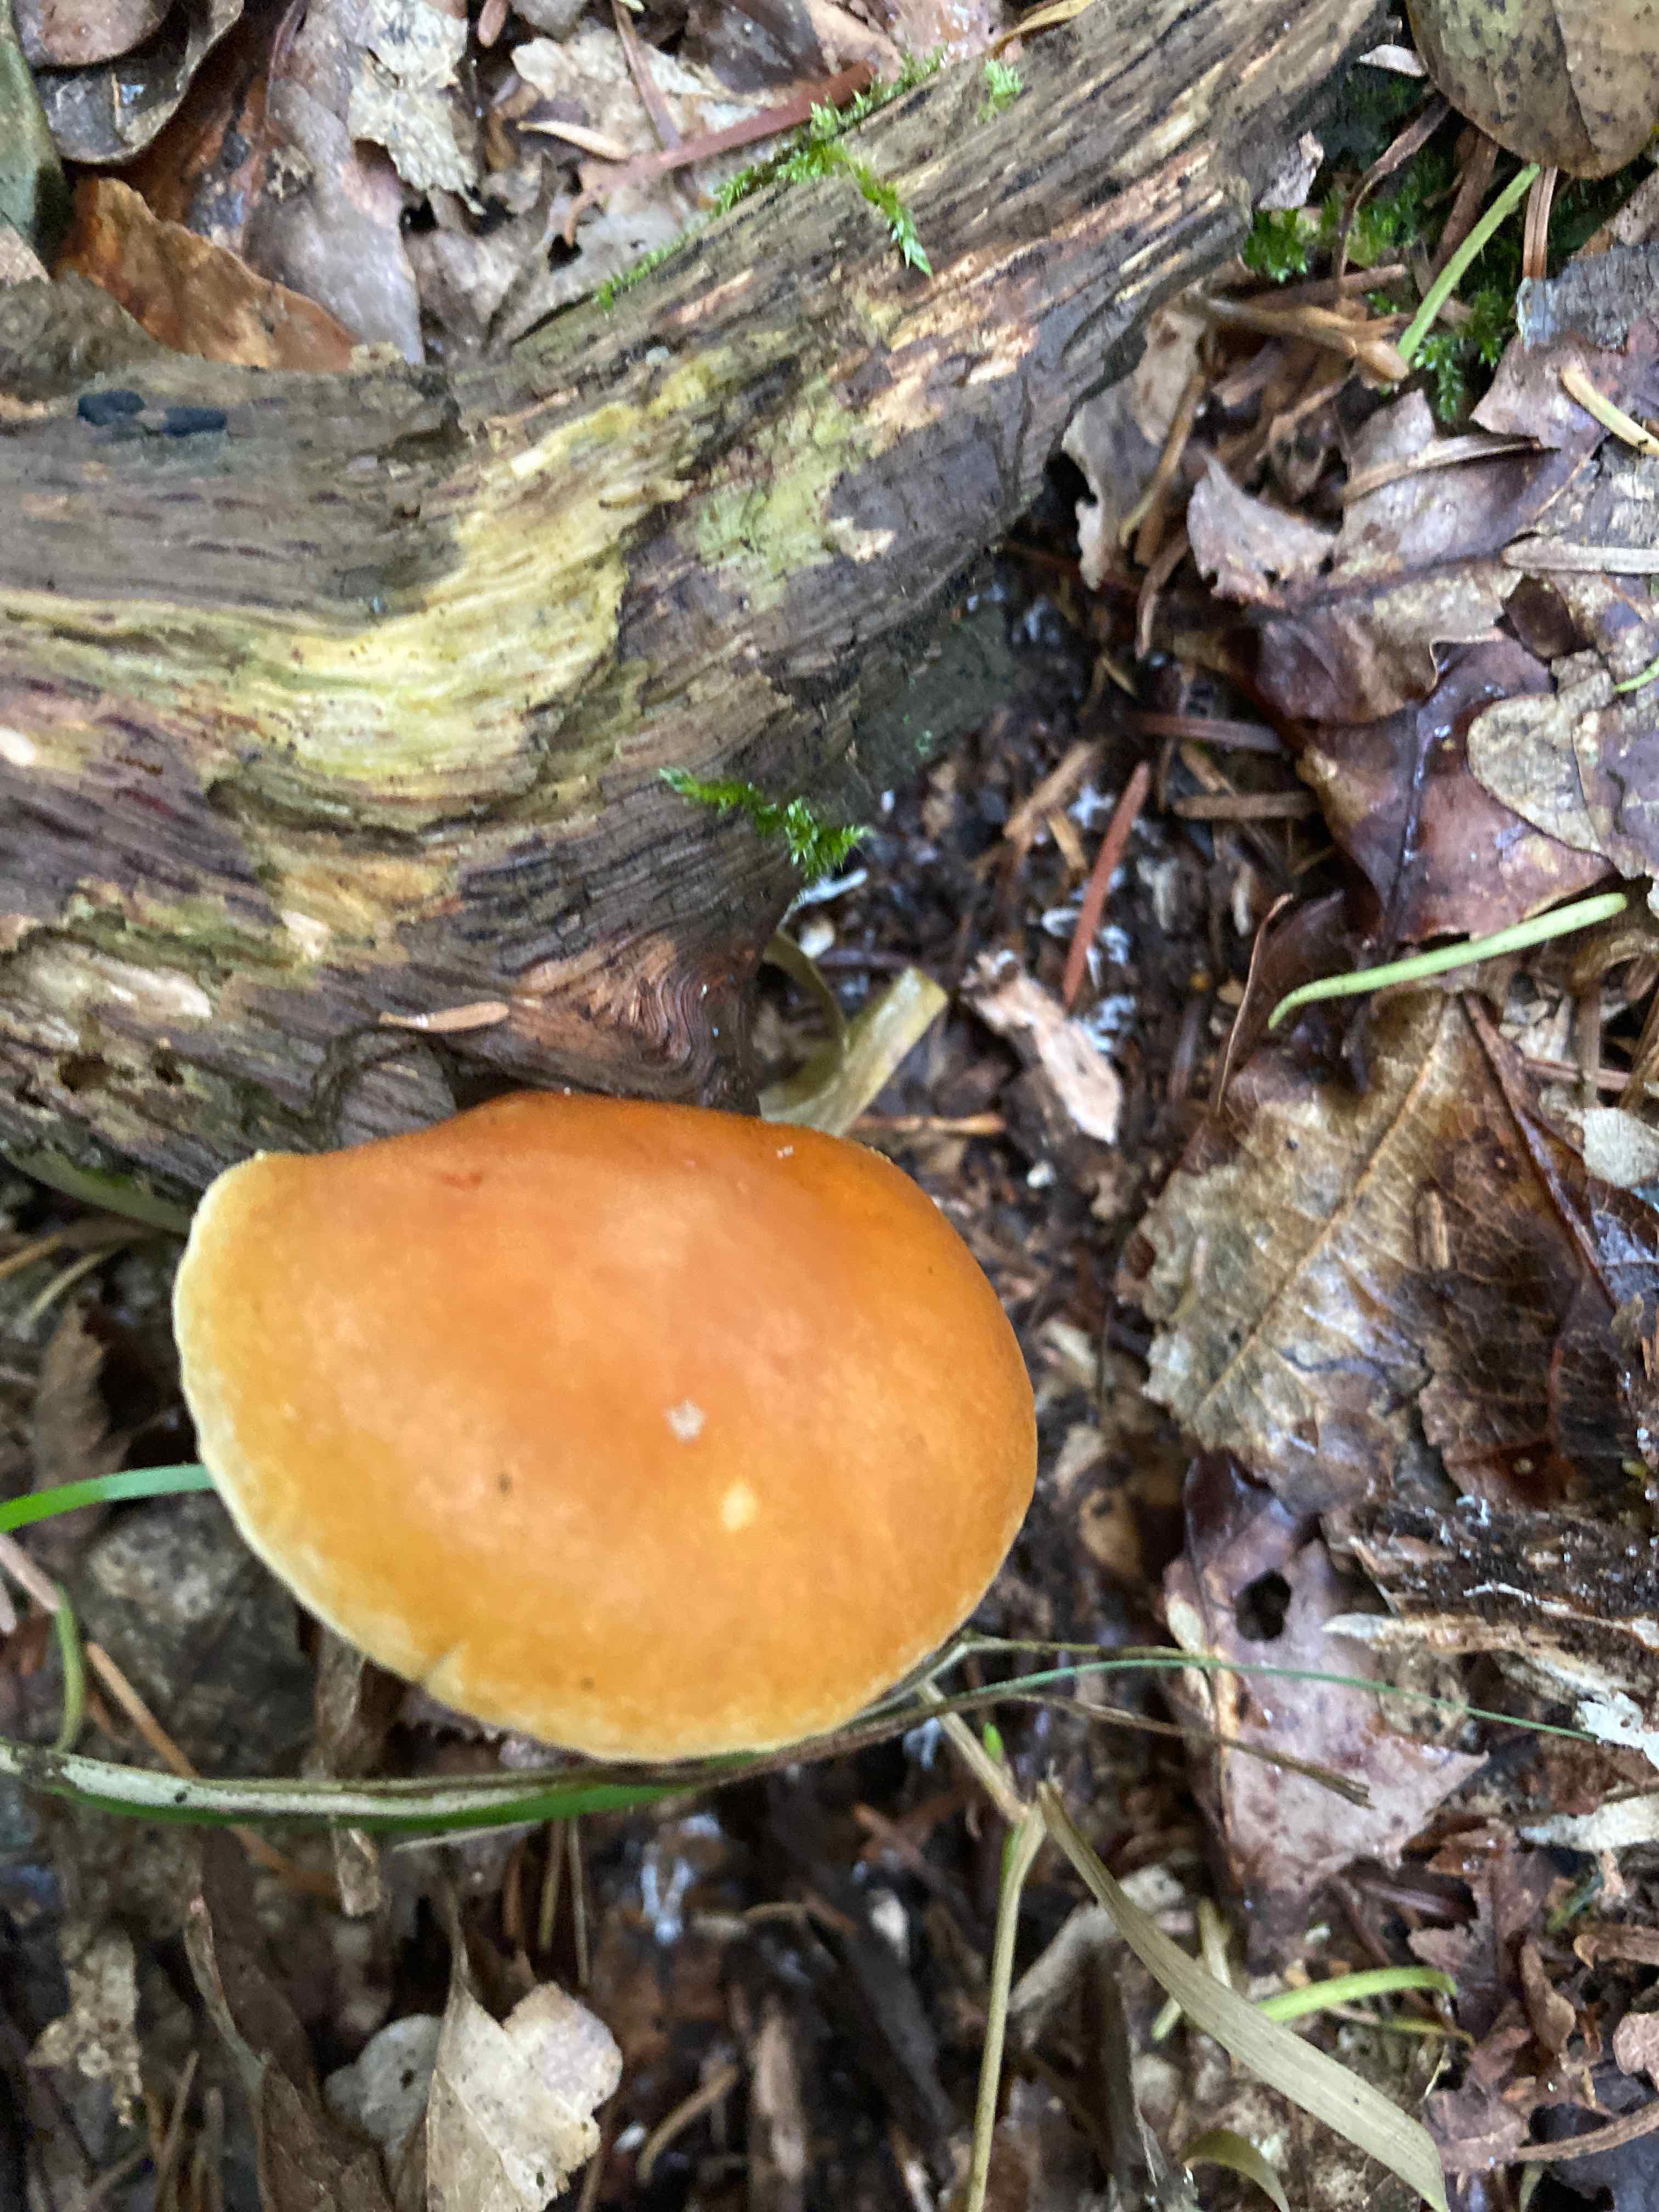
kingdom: Fungi
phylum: Basidiomycota
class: Agaricomycetes
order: Agaricales
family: Hymenogastraceae
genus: Gymnopilus
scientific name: Gymnopilus penetrans
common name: plettet flammehat
